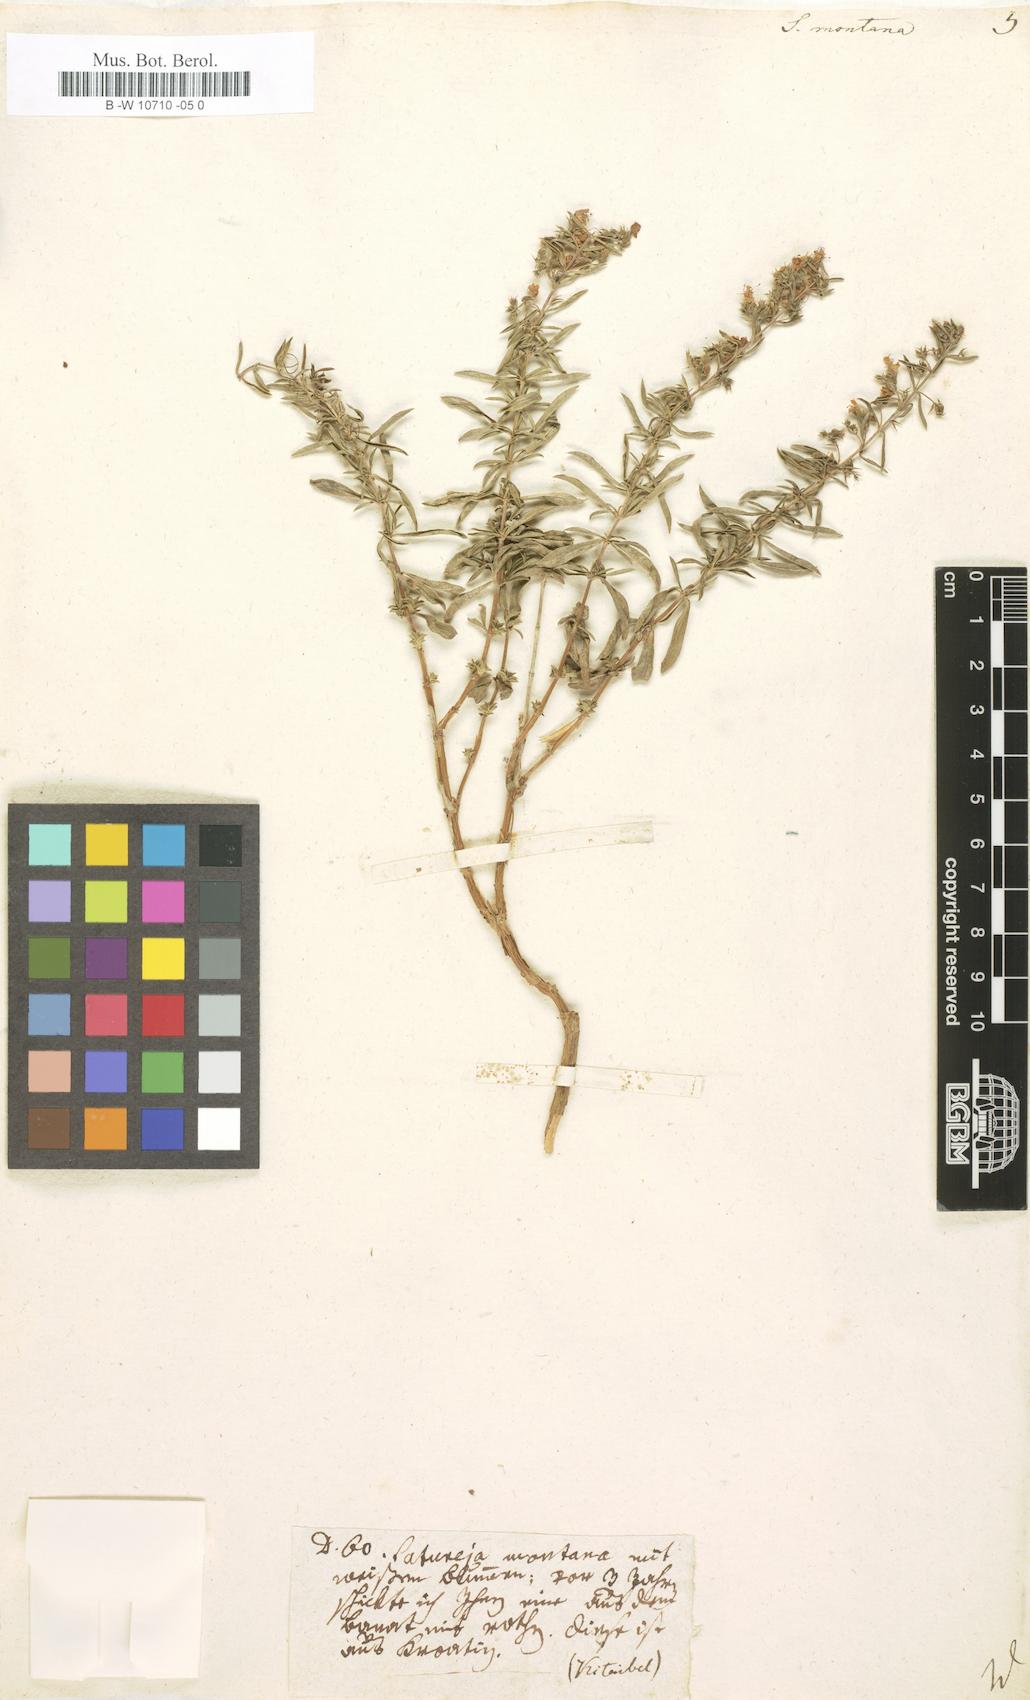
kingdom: Plantae
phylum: Tracheophyta
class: Magnoliopsida
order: Lamiales
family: Lamiaceae
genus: Satureja
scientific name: Satureja montana
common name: Winter savory
